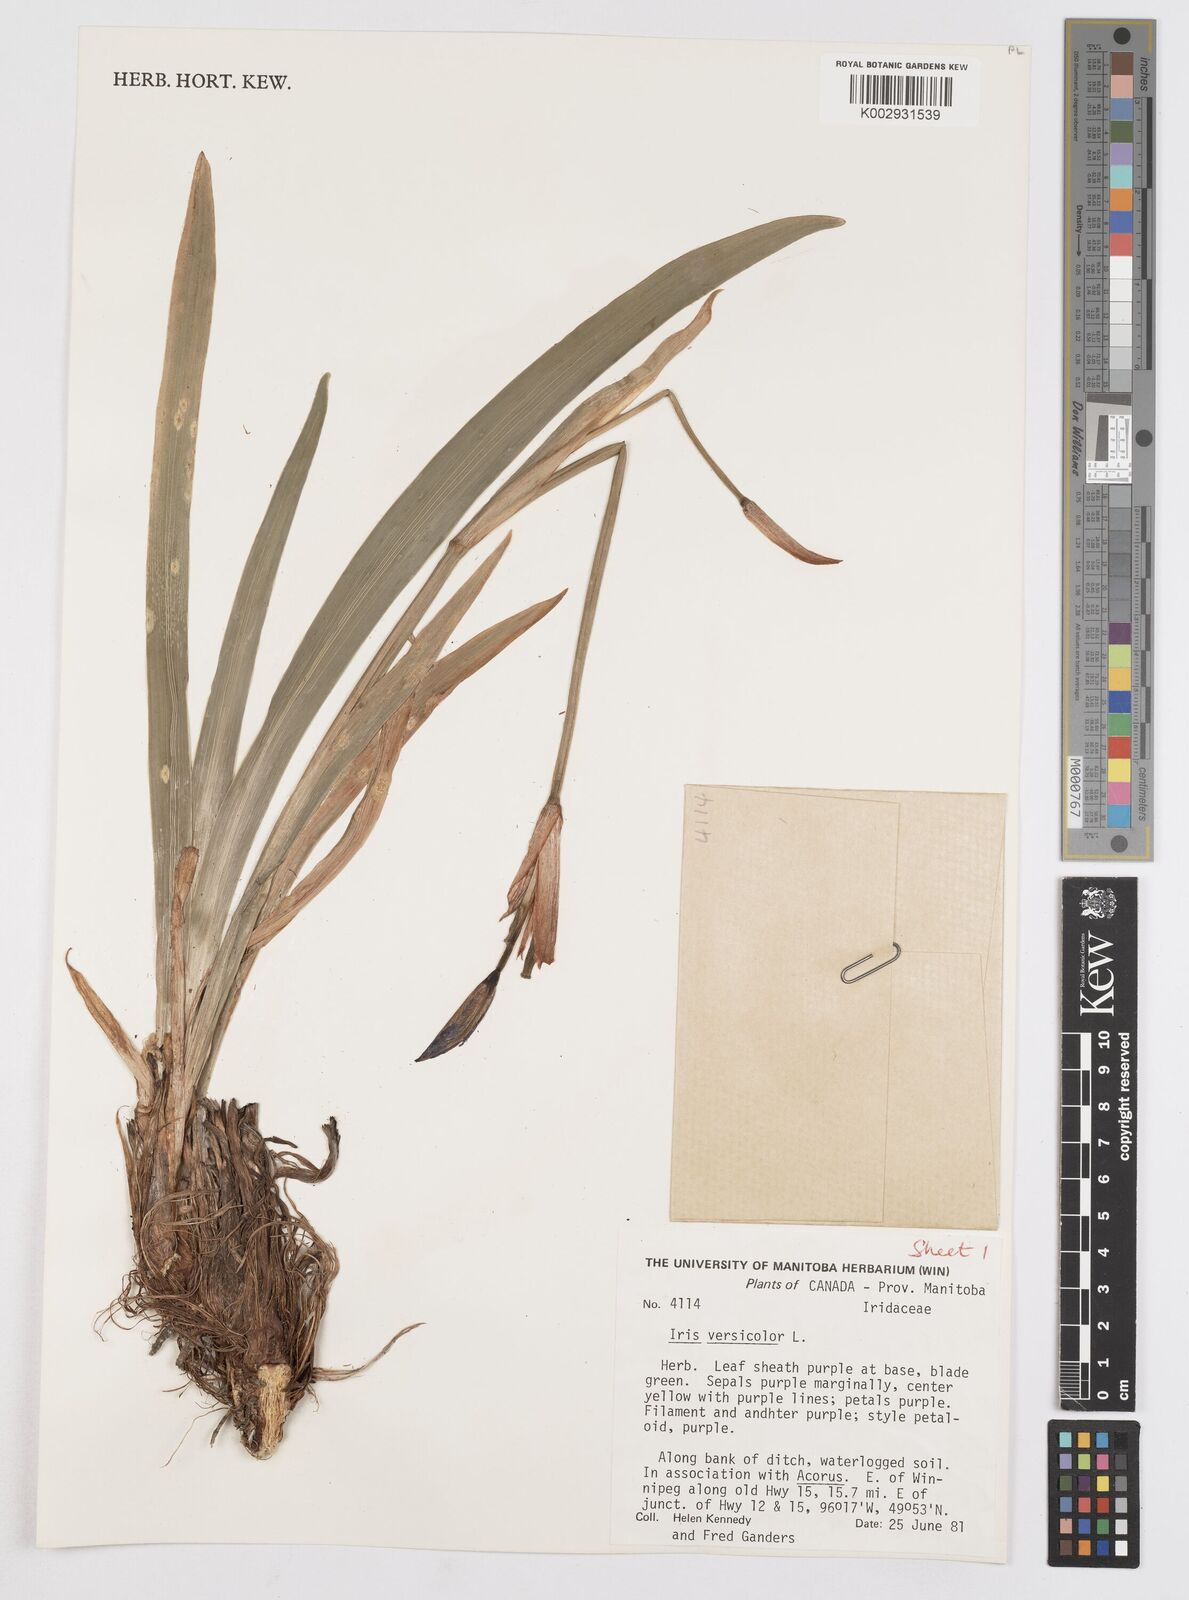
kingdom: Plantae
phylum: Tracheophyta
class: Liliopsida
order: Asparagales
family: Iridaceae
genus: Iris
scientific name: Iris versicolor
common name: Purple iris
